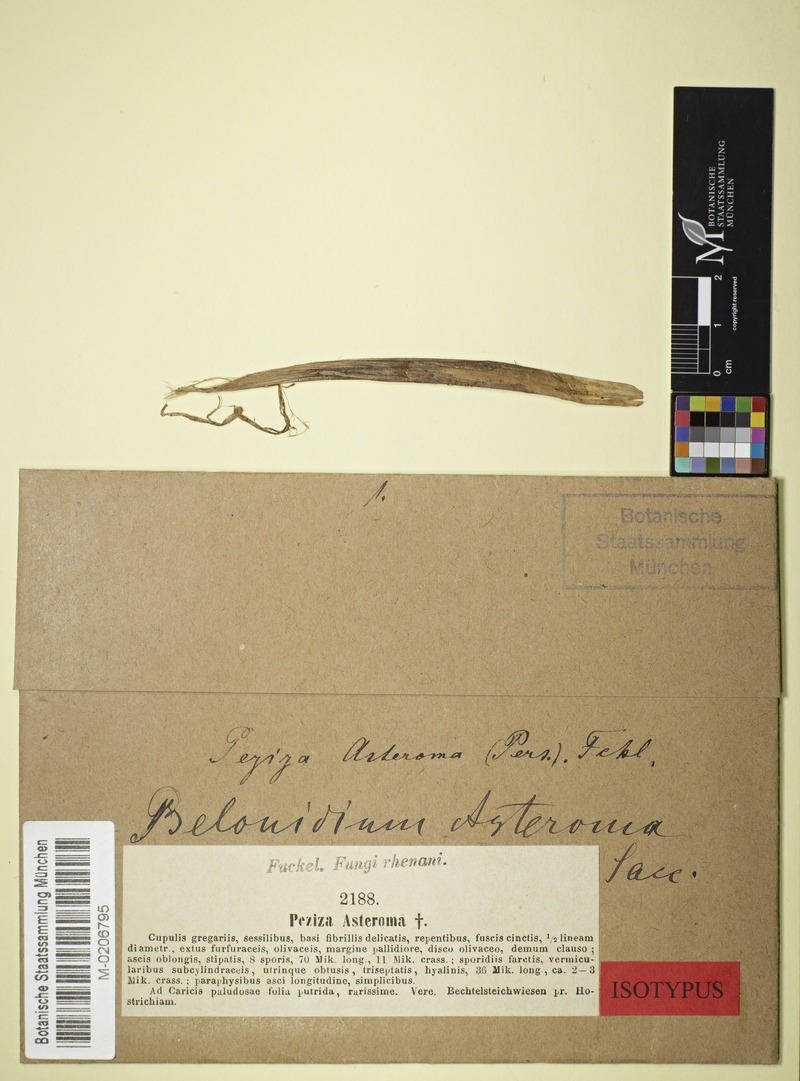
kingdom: Fungi
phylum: Ascomycota
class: Leotiomycetes
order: Helotiales
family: Mollisiaceae
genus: Mollisia
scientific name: Mollisia asteroma
